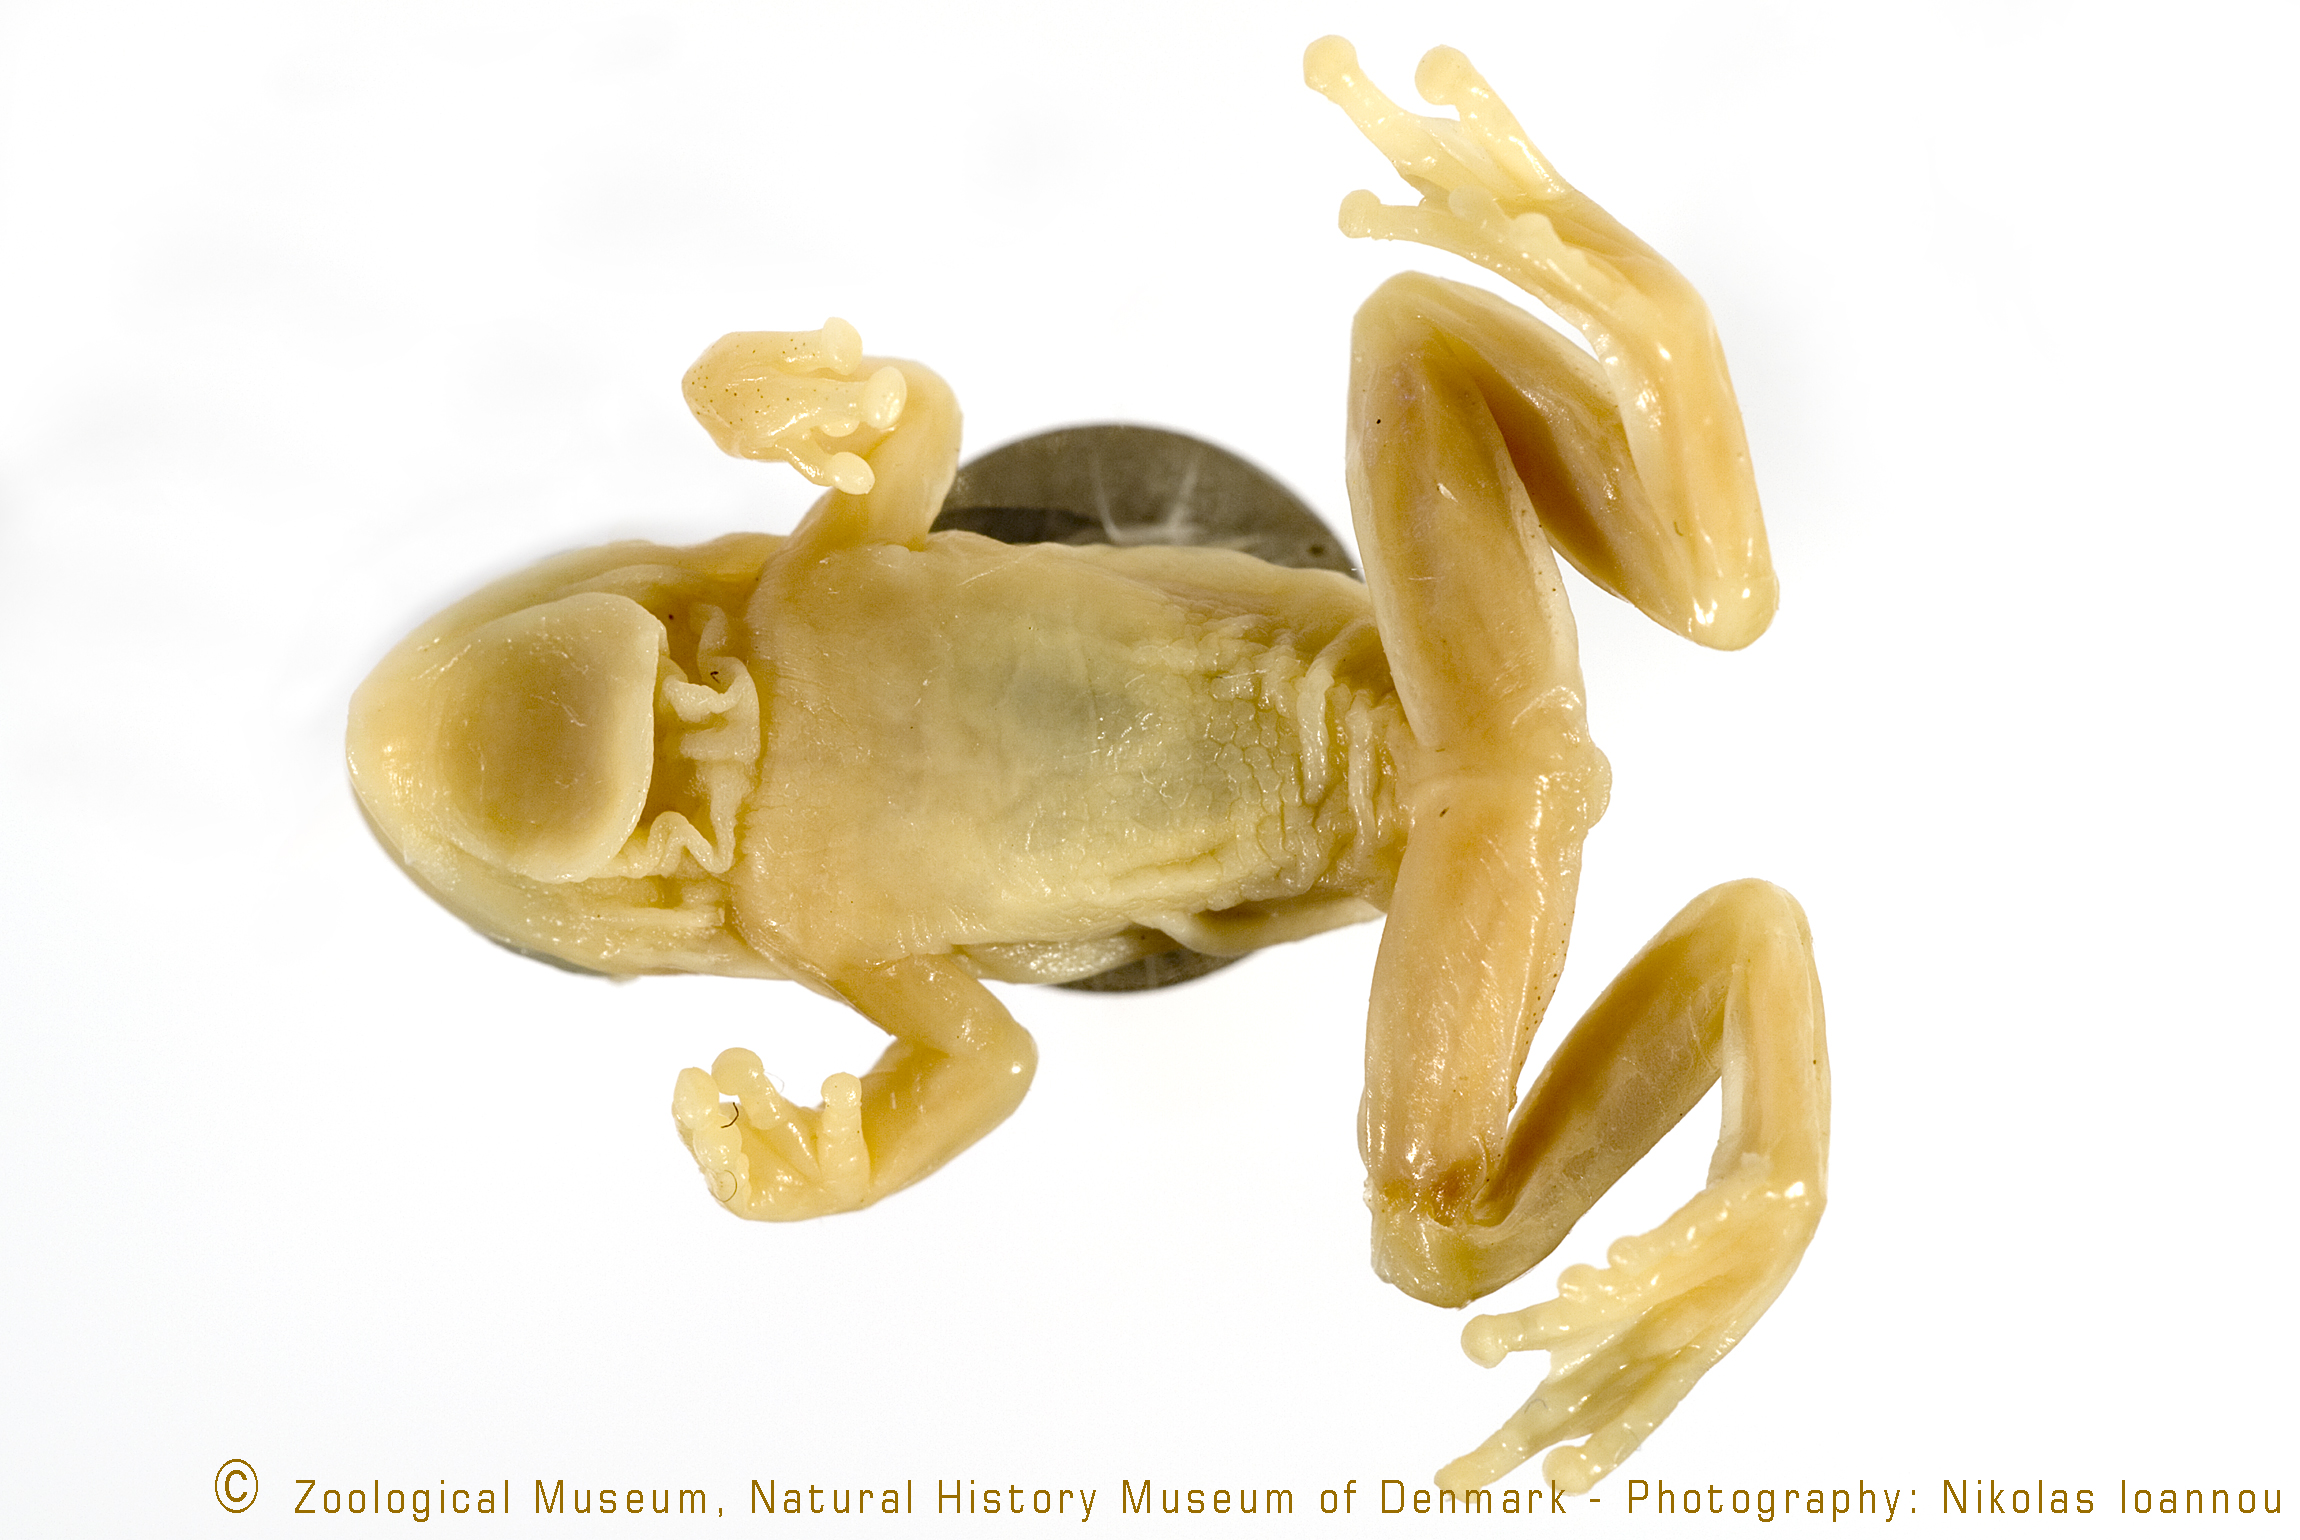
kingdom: Animalia
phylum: Chordata
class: Amphibia
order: Anura
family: Hyperoliidae
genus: Afrixalus
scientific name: Afrixalus stuhlmanni
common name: Lesser banana frog
